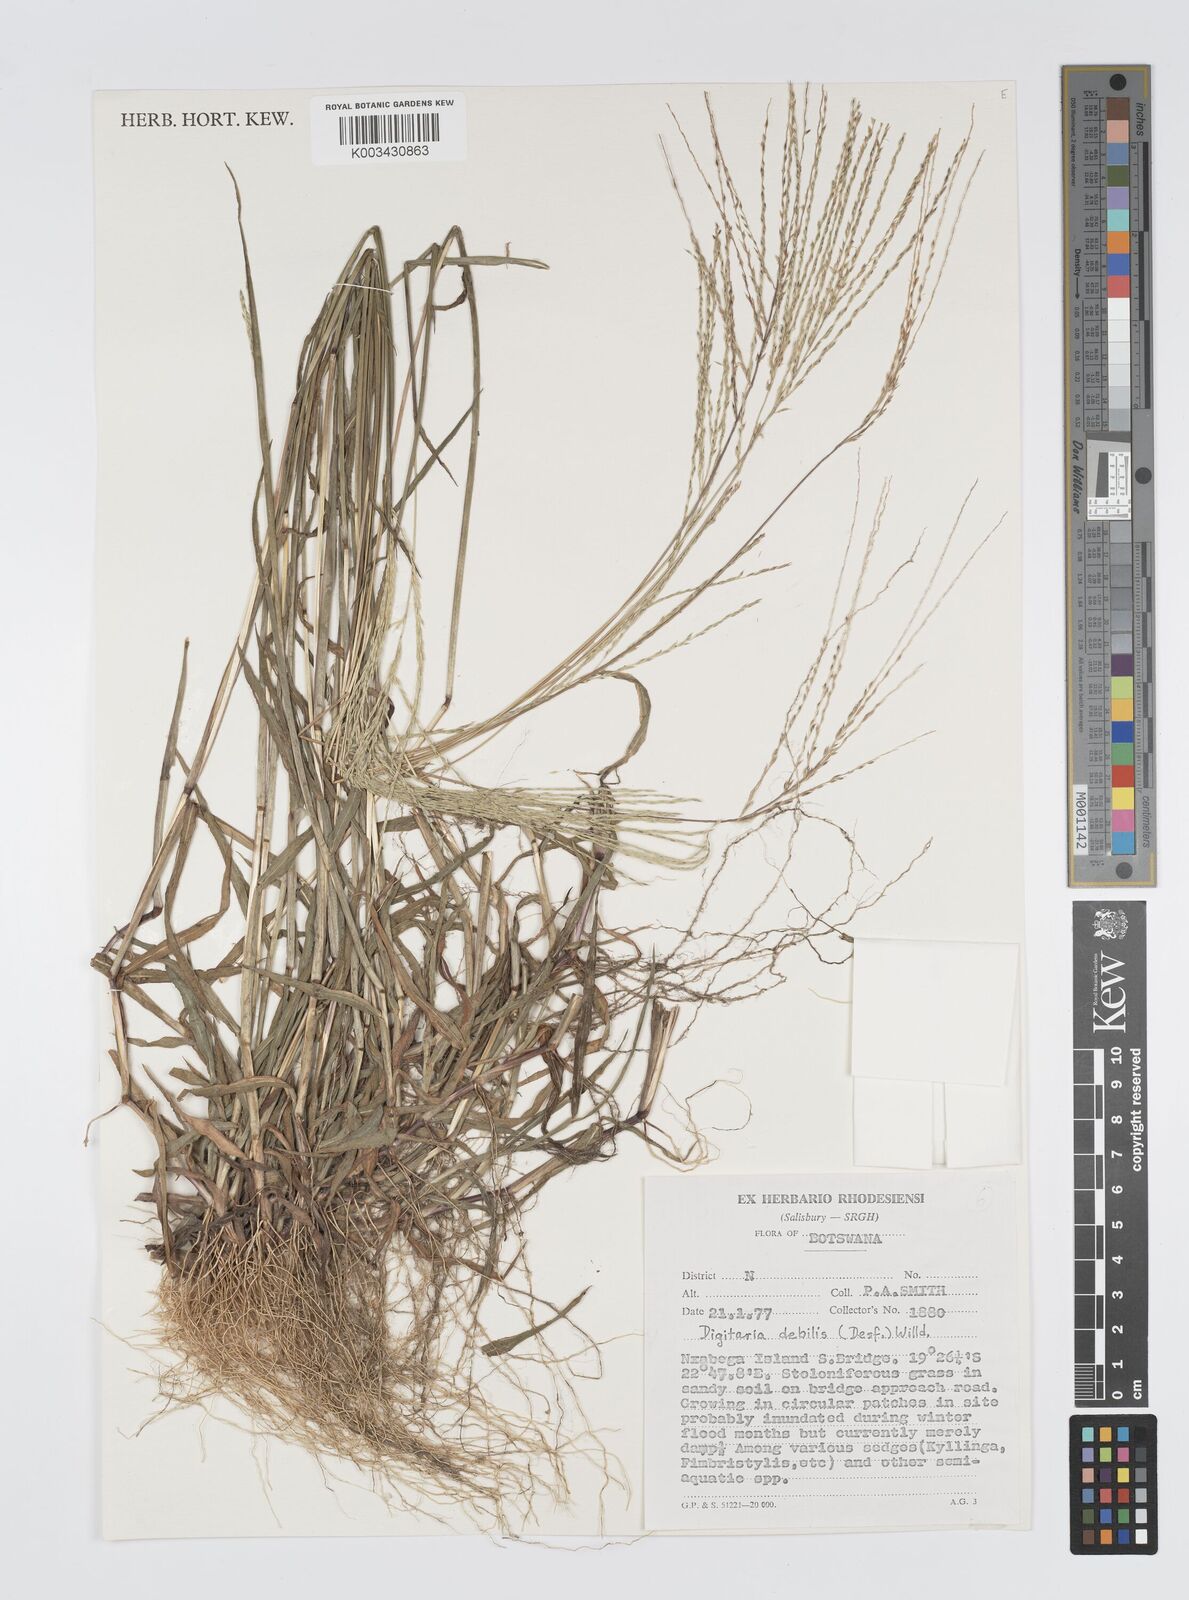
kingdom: Plantae
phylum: Tracheophyta
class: Liliopsida
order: Poales
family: Poaceae
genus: Digitaria
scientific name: Digitaria debilis
